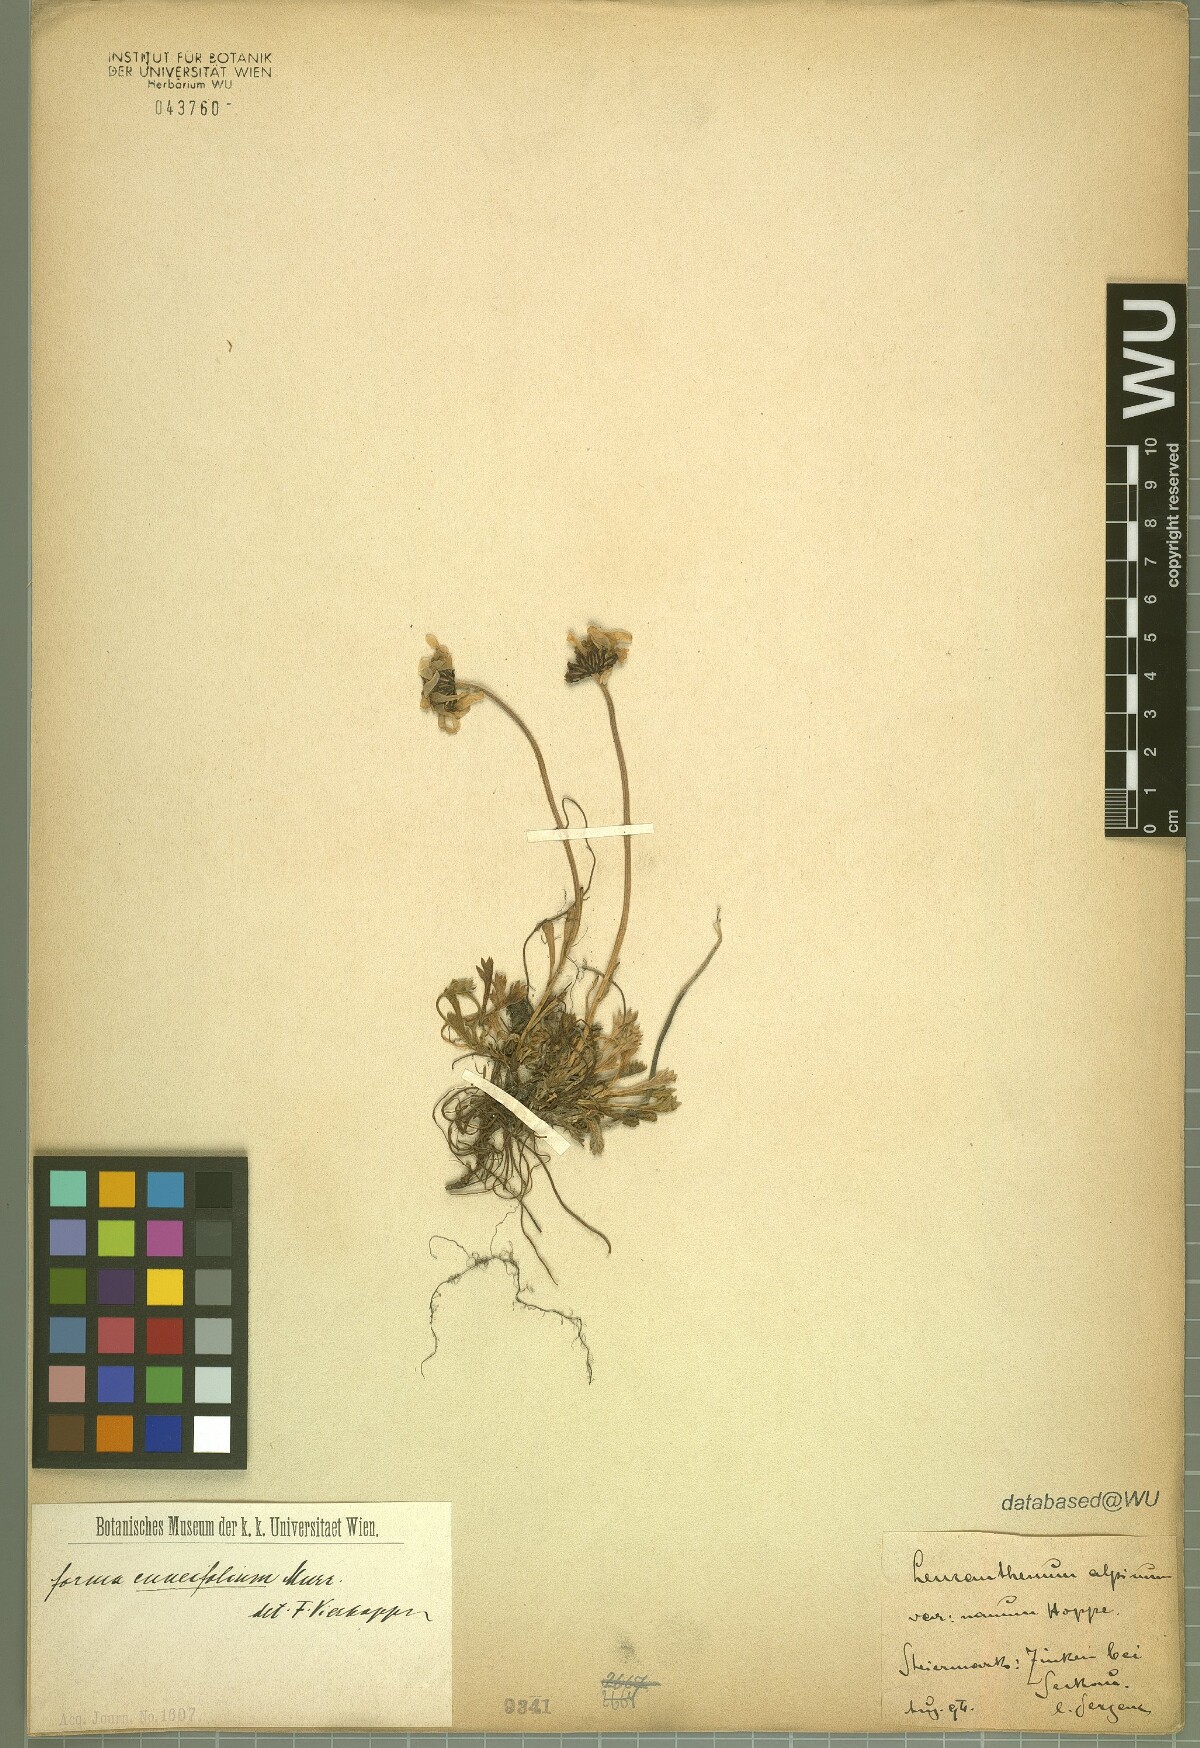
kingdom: Plantae
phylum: Tracheophyta
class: Magnoliopsida
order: Asterales
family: Asteraceae
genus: Leucanthemopsis
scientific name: Leucanthemopsis alpina
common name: Alpine moon daisy
